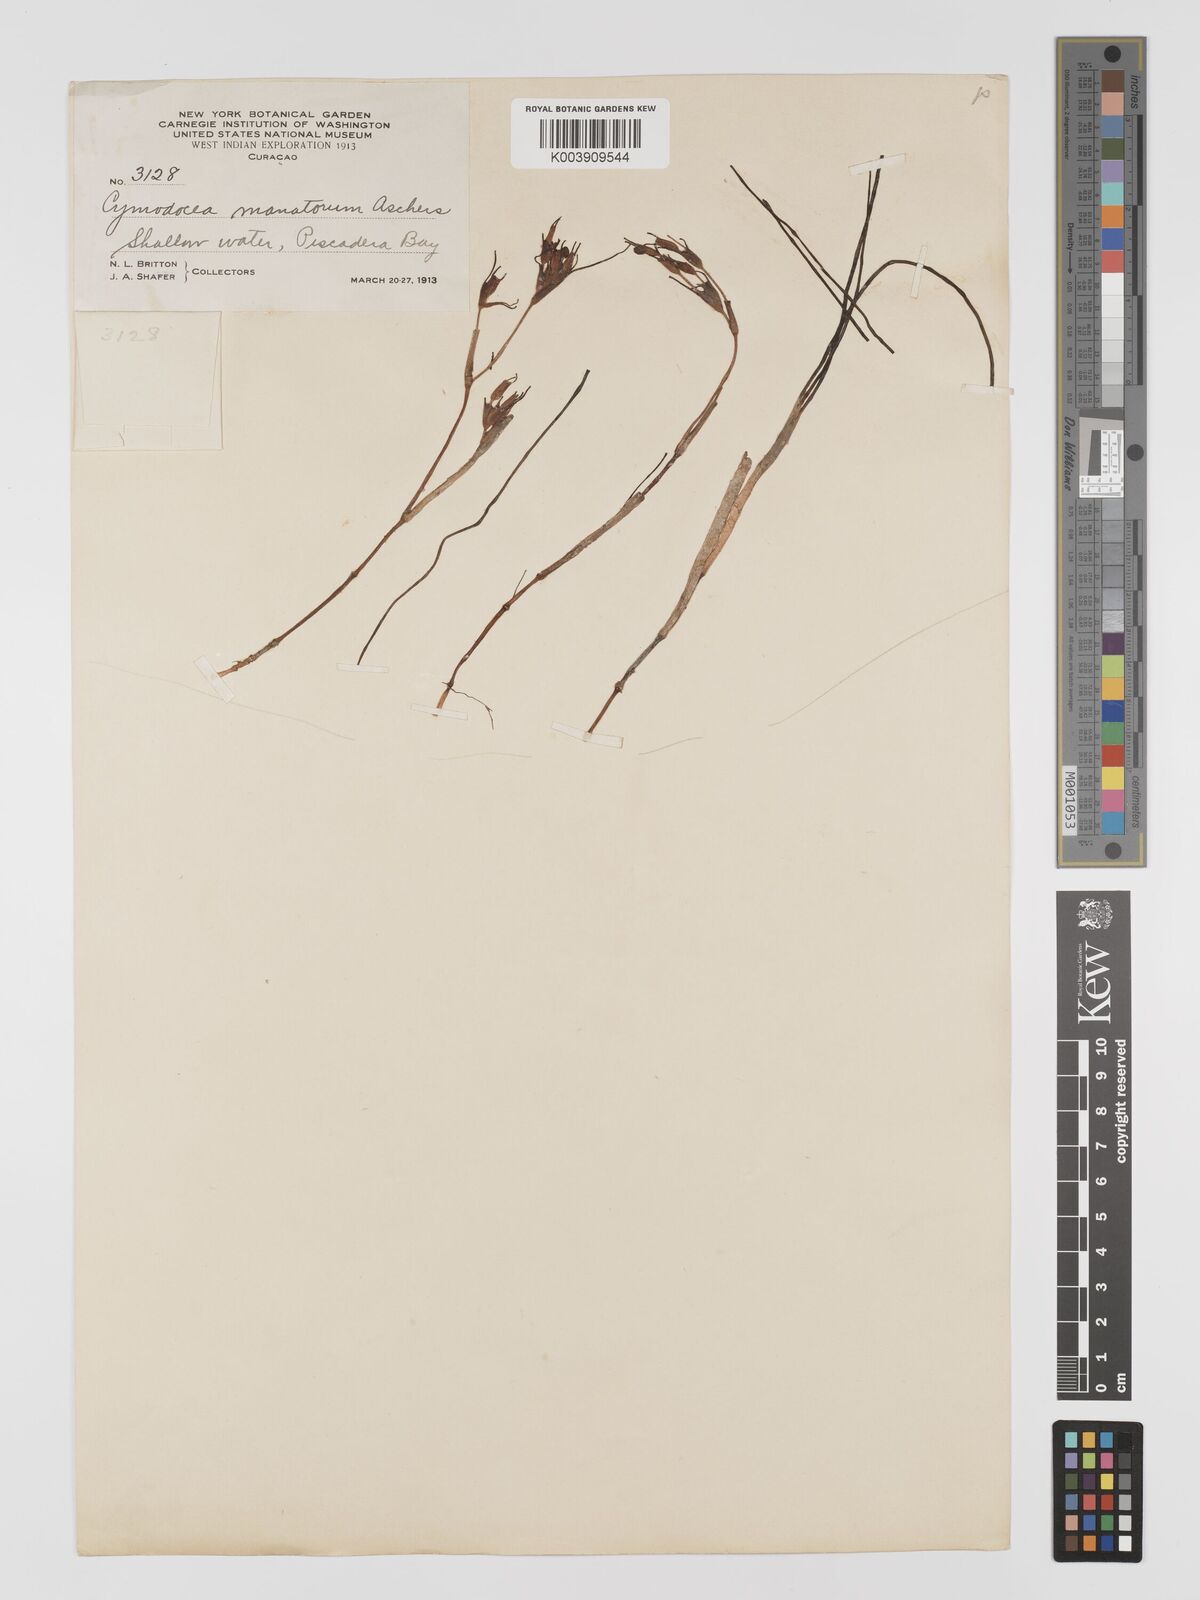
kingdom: Plantae
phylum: Tracheophyta
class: Liliopsida
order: Alismatales
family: Cymodoceaceae
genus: Syringodium
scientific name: Syringodium
